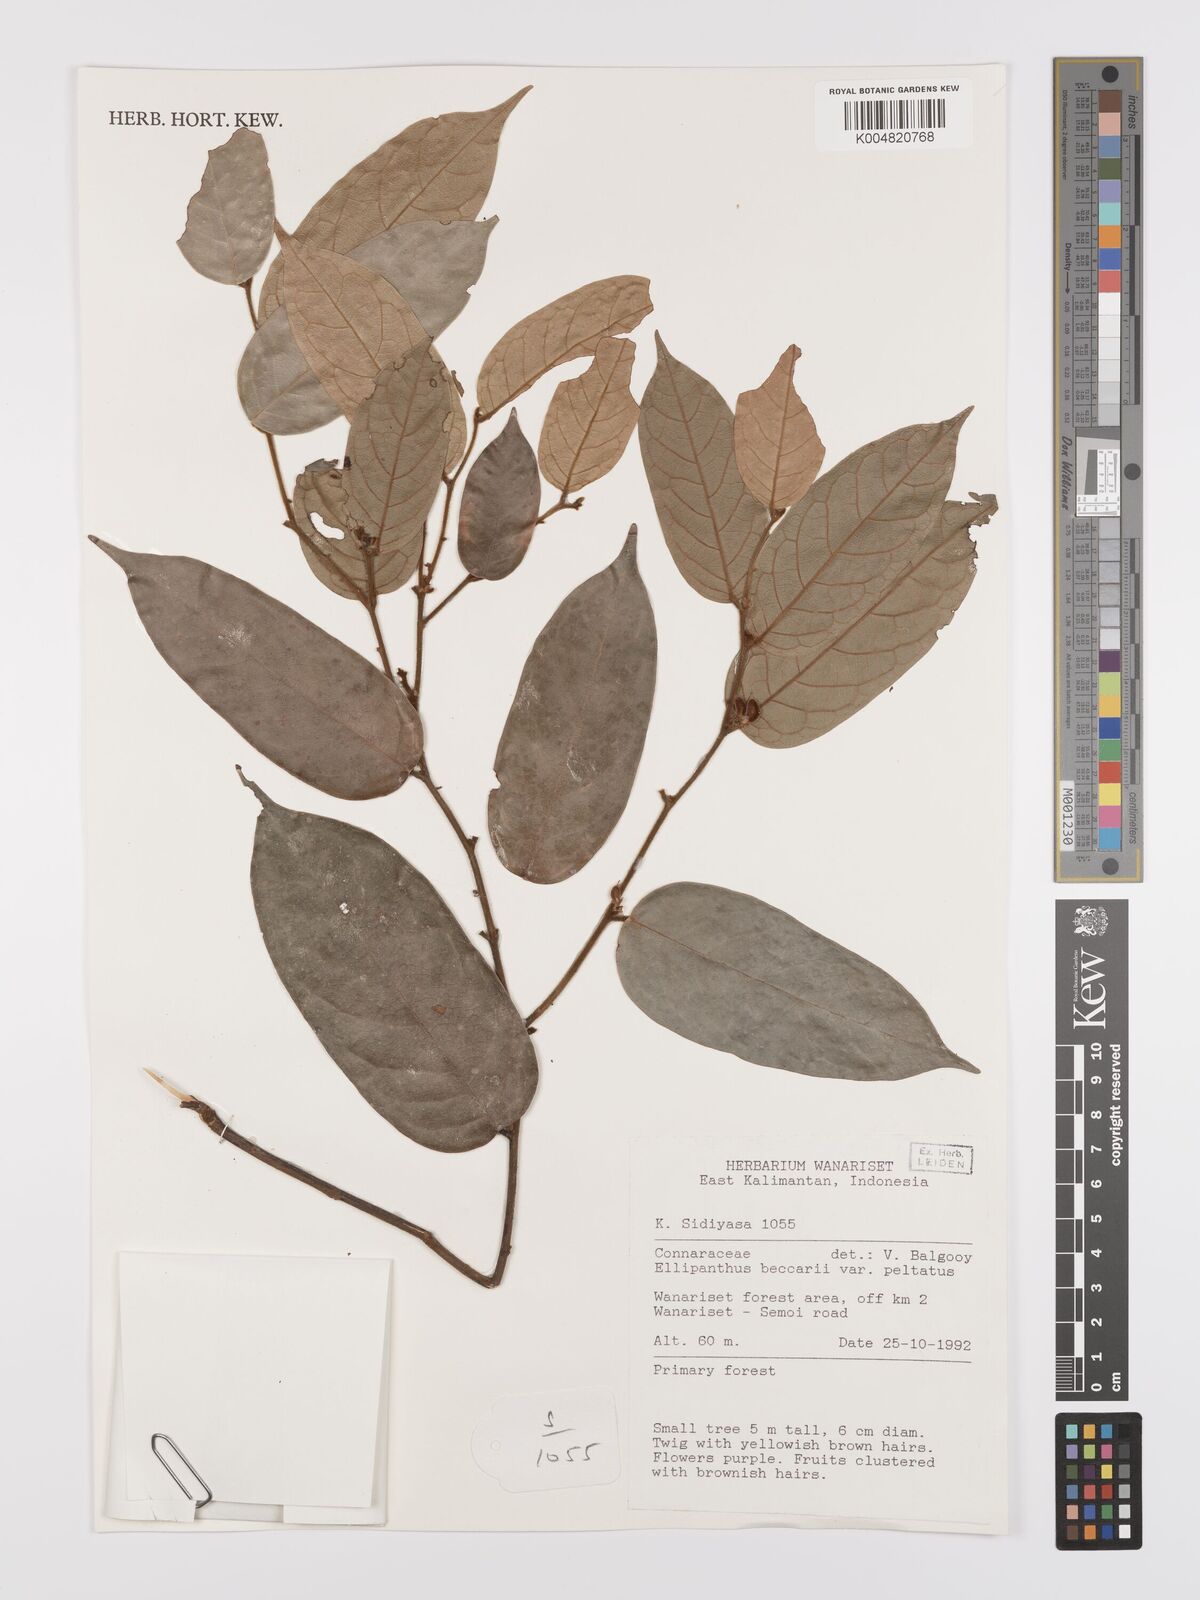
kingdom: Plantae
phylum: Tracheophyta
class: Magnoliopsida
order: Oxalidales
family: Connaraceae
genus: Ellipanthus
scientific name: Ellipanthus beccarii
